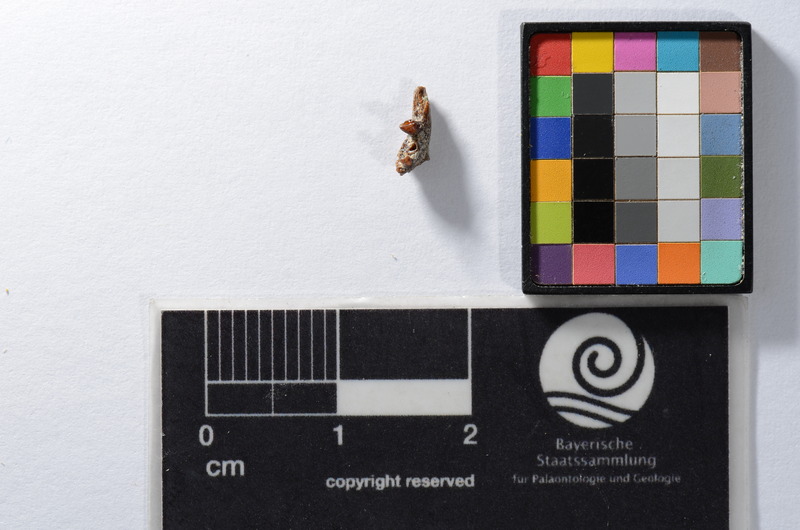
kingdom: Animalia
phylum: Chordata
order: Cypriniformes
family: Cyprinidae
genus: Scardinius
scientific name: Scardinius
